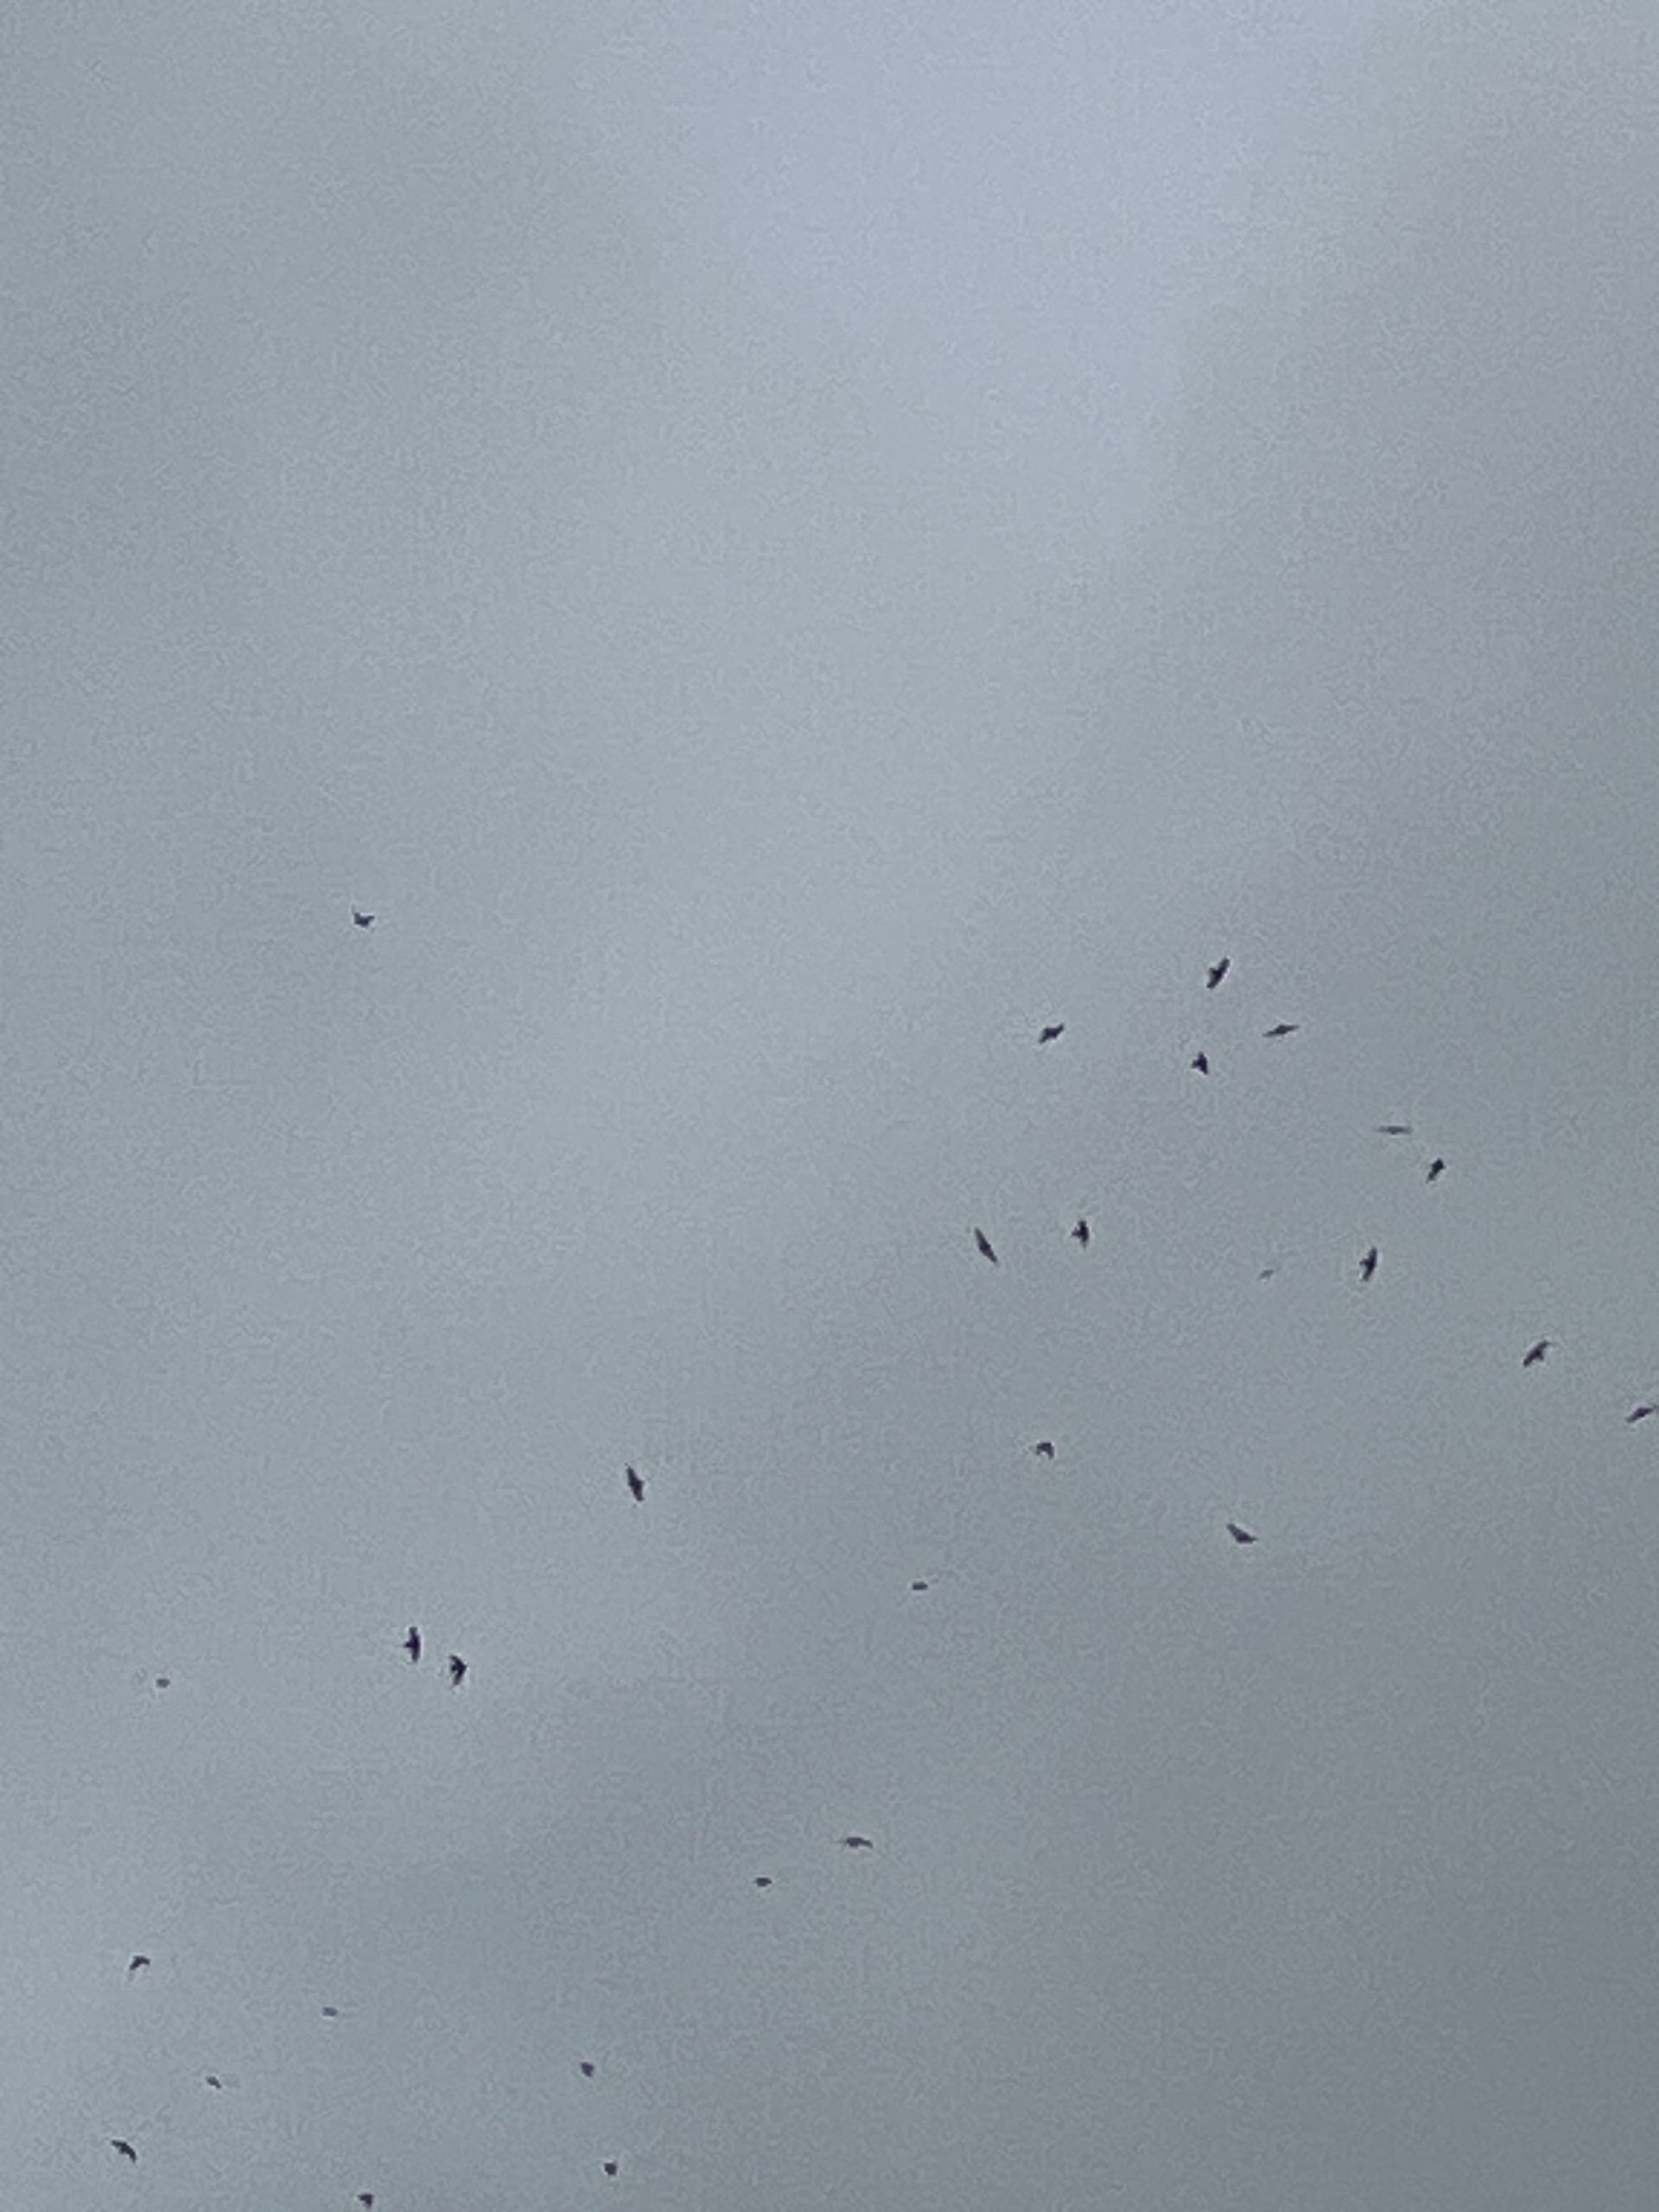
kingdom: Animalia
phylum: Chordata
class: Aves
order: Apodiformes
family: Apodidae
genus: Apus
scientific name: Apus apus
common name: Mursejler
